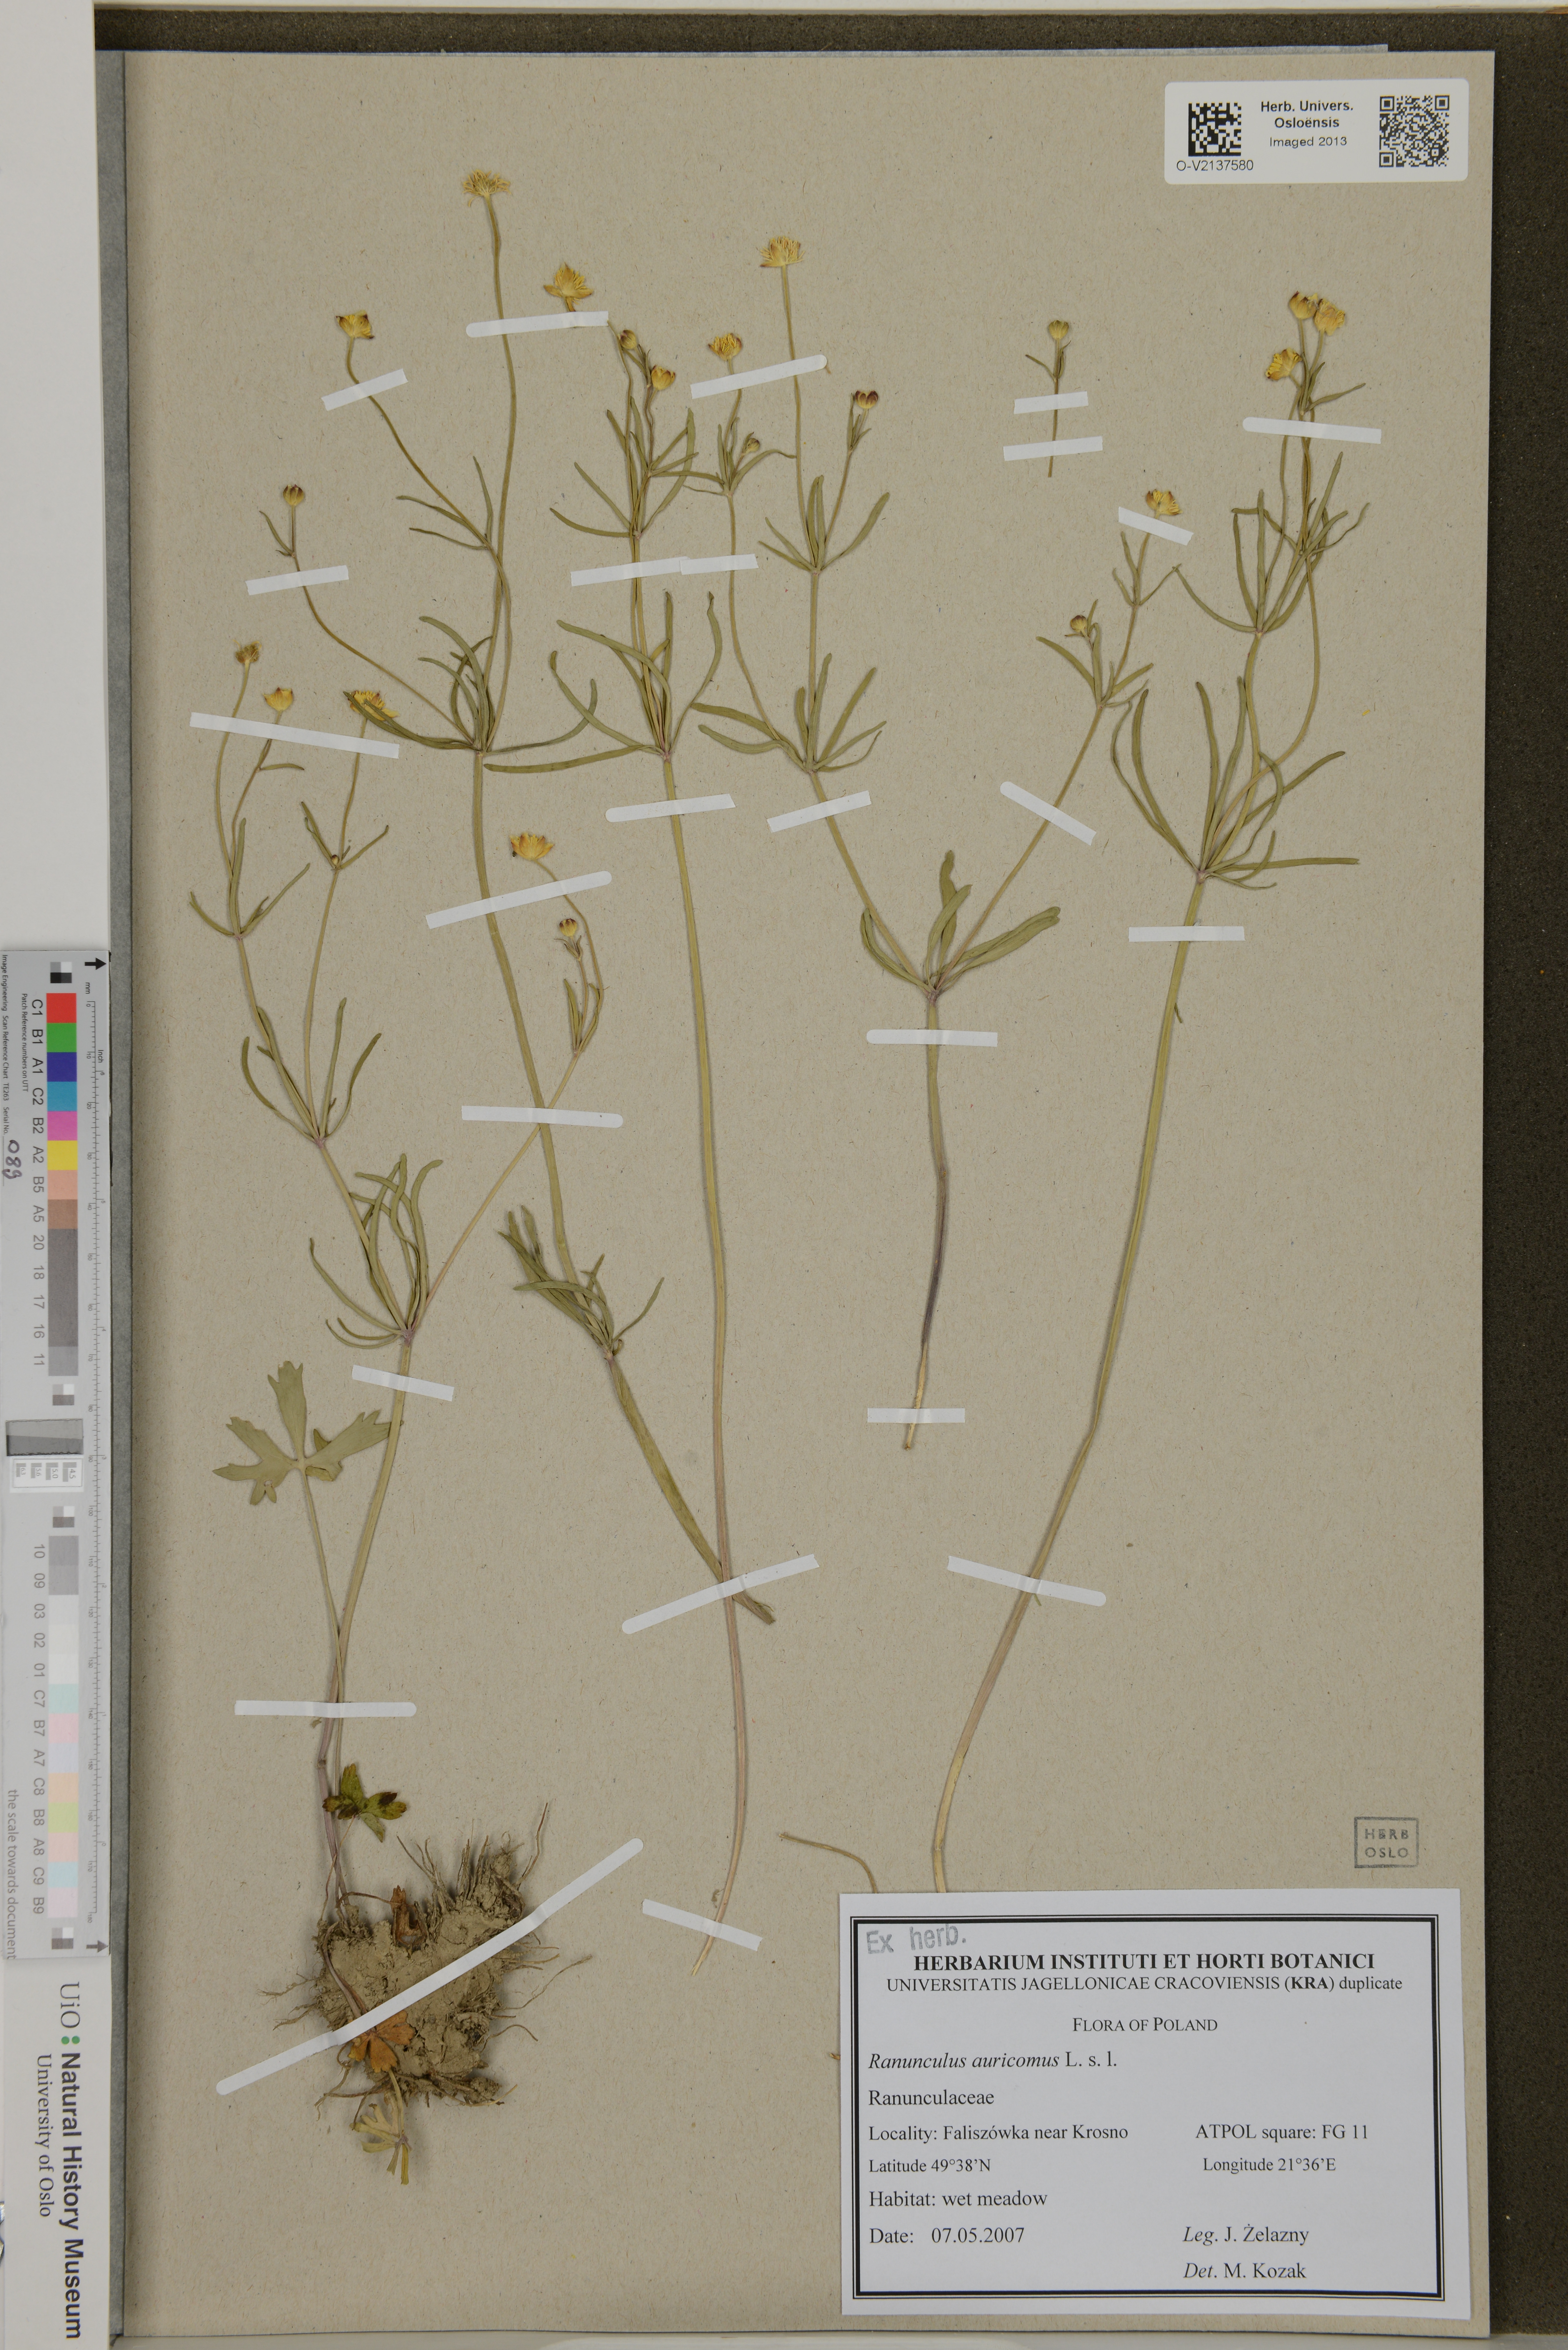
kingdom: Plantae
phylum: Tracheophyta
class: Magnoliopsida
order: Ranunculales
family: Ranunculaceae
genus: Ranunculus
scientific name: Ranunculus auricomus
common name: Goldilocks buttercup
